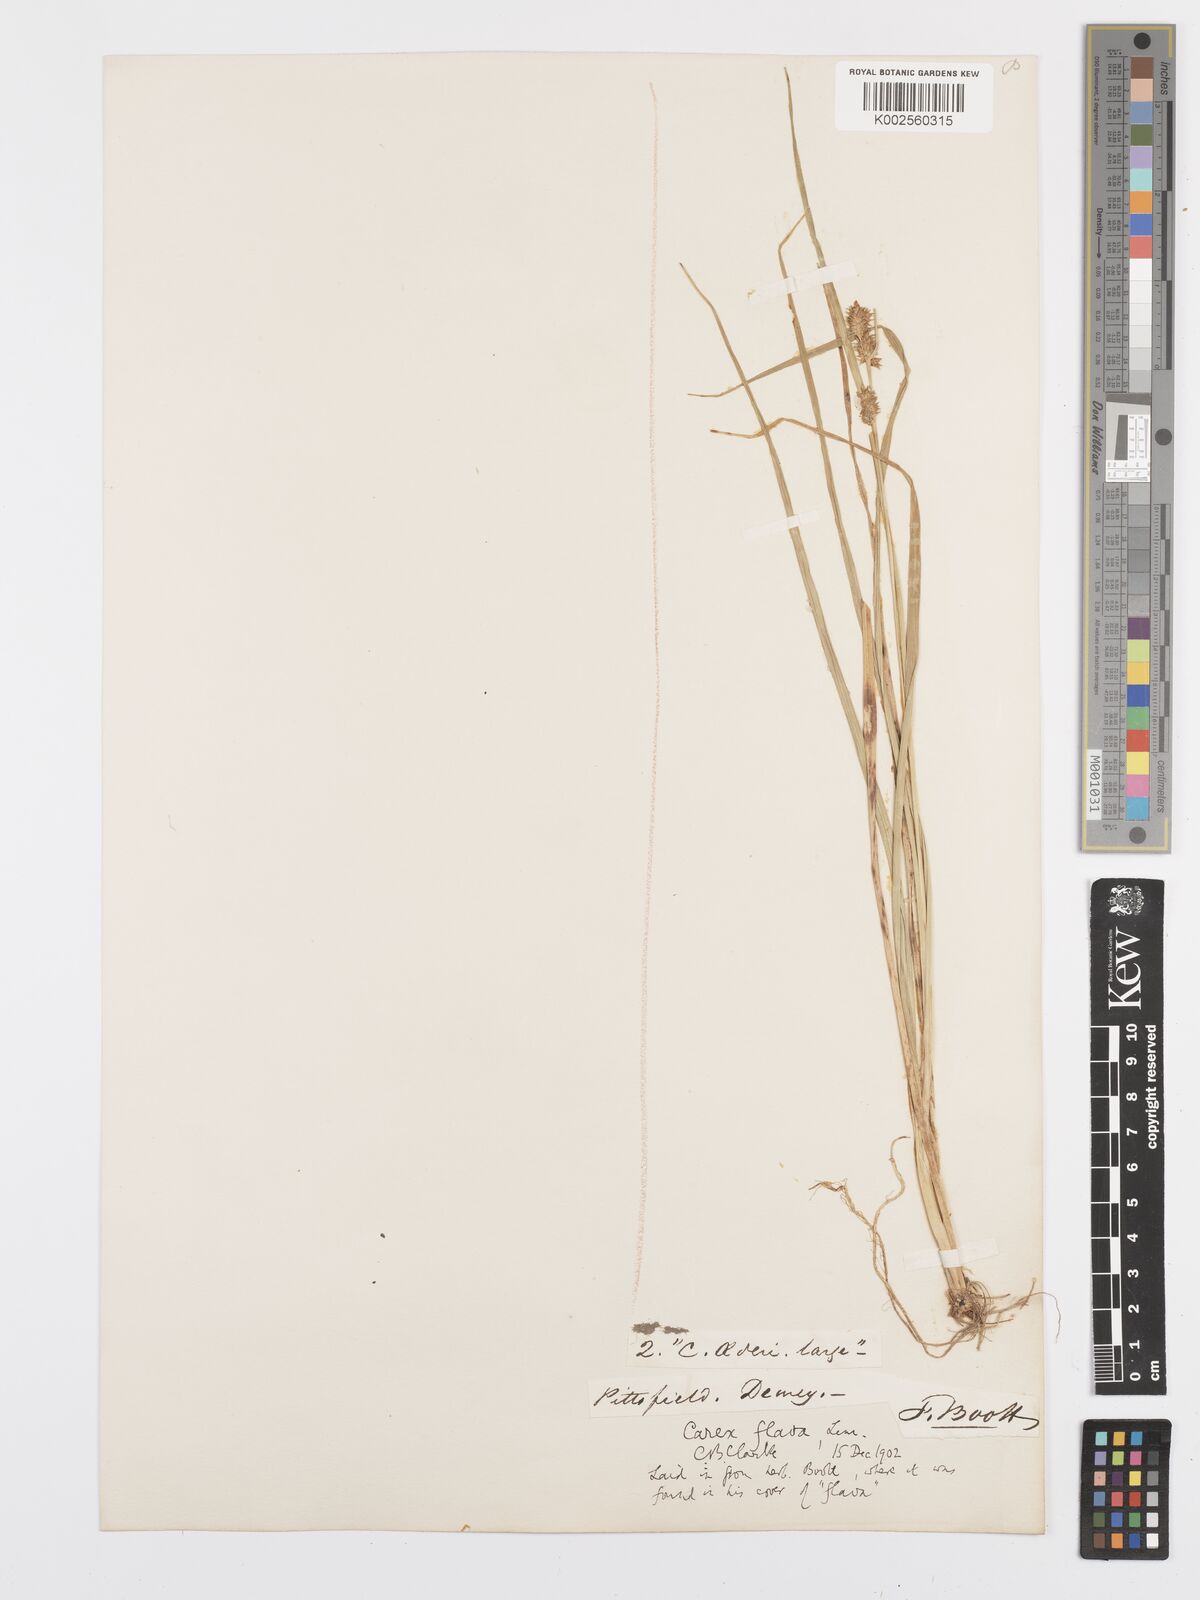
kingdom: Plantae
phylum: Tracheophyta
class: Liliopsida
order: Poales
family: Cyperaceae
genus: Carex
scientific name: Carex flava
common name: Large yellow-sedge
